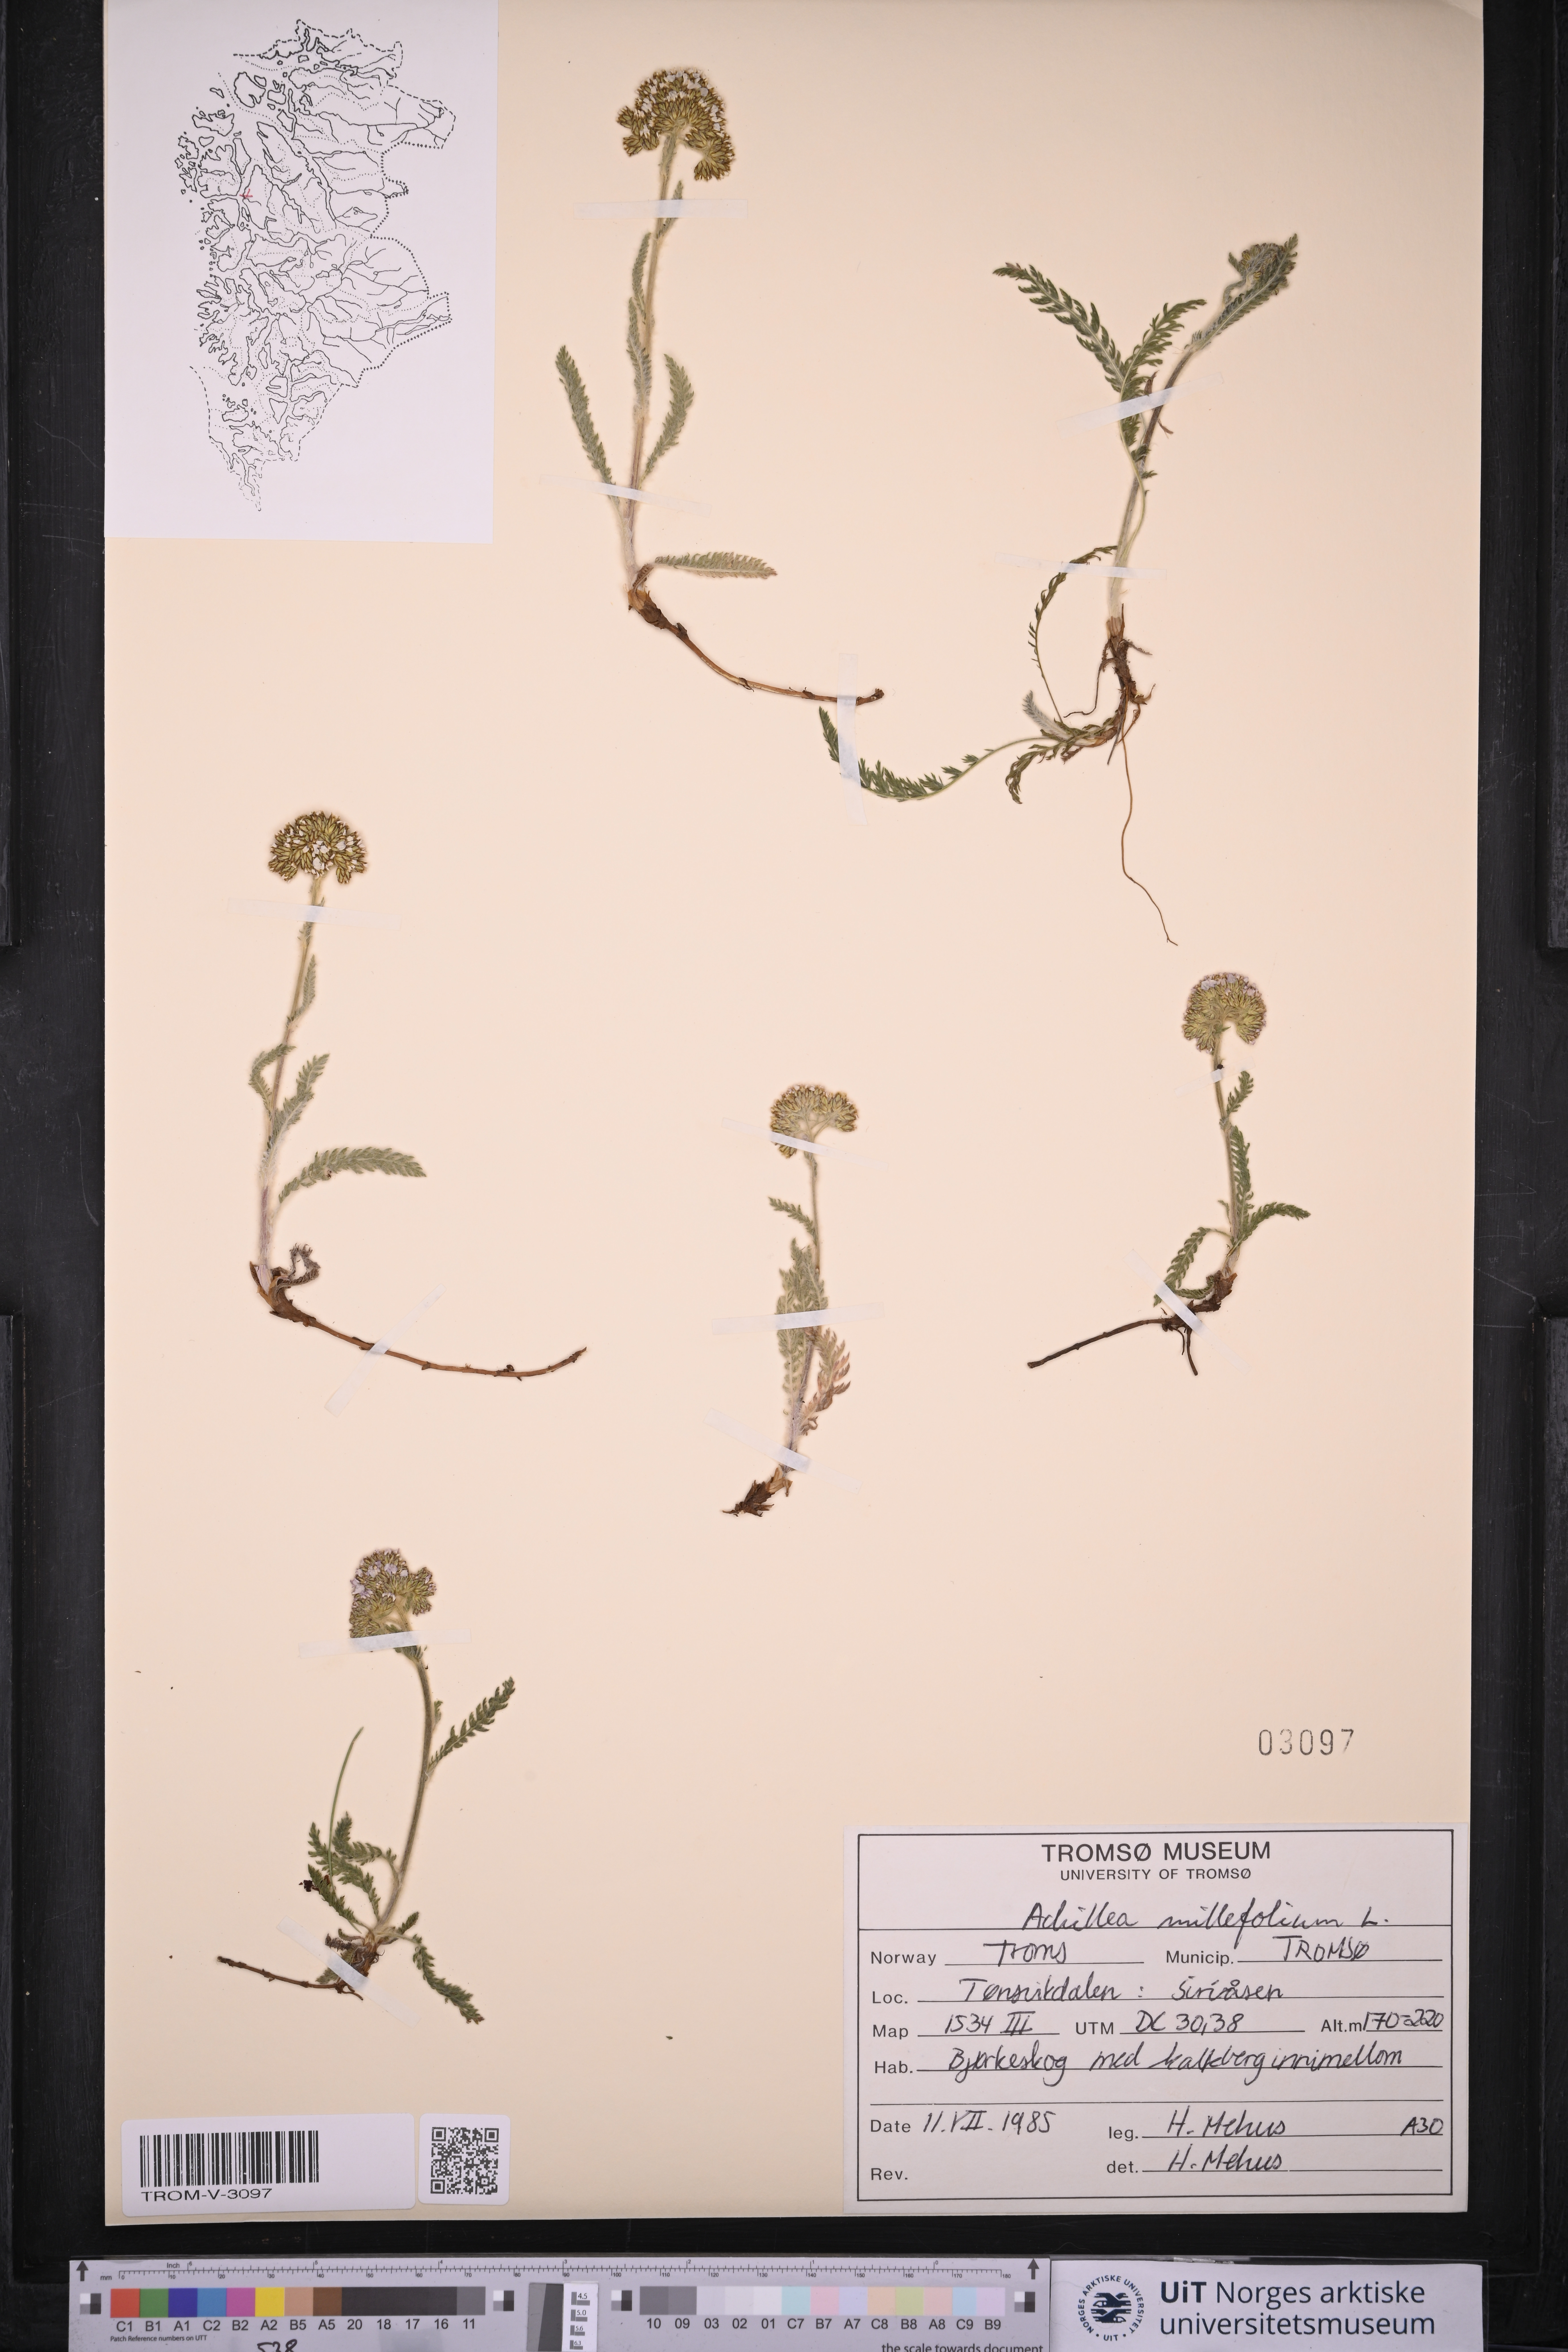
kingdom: Plantae
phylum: Tracheophyta
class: Magnoliopsida
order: Asterales
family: Asteraceae
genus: Achillea
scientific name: Achillea millefolium
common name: Yarrow
